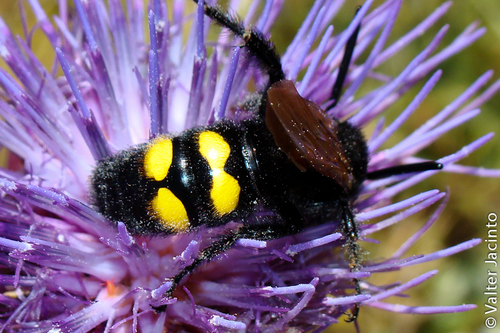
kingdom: Animalia
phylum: Arthropoda
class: Insecta
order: Hymenoptera
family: Scoliidae
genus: Megascolia
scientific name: Megascolia maculata
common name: Mammoth wasp
